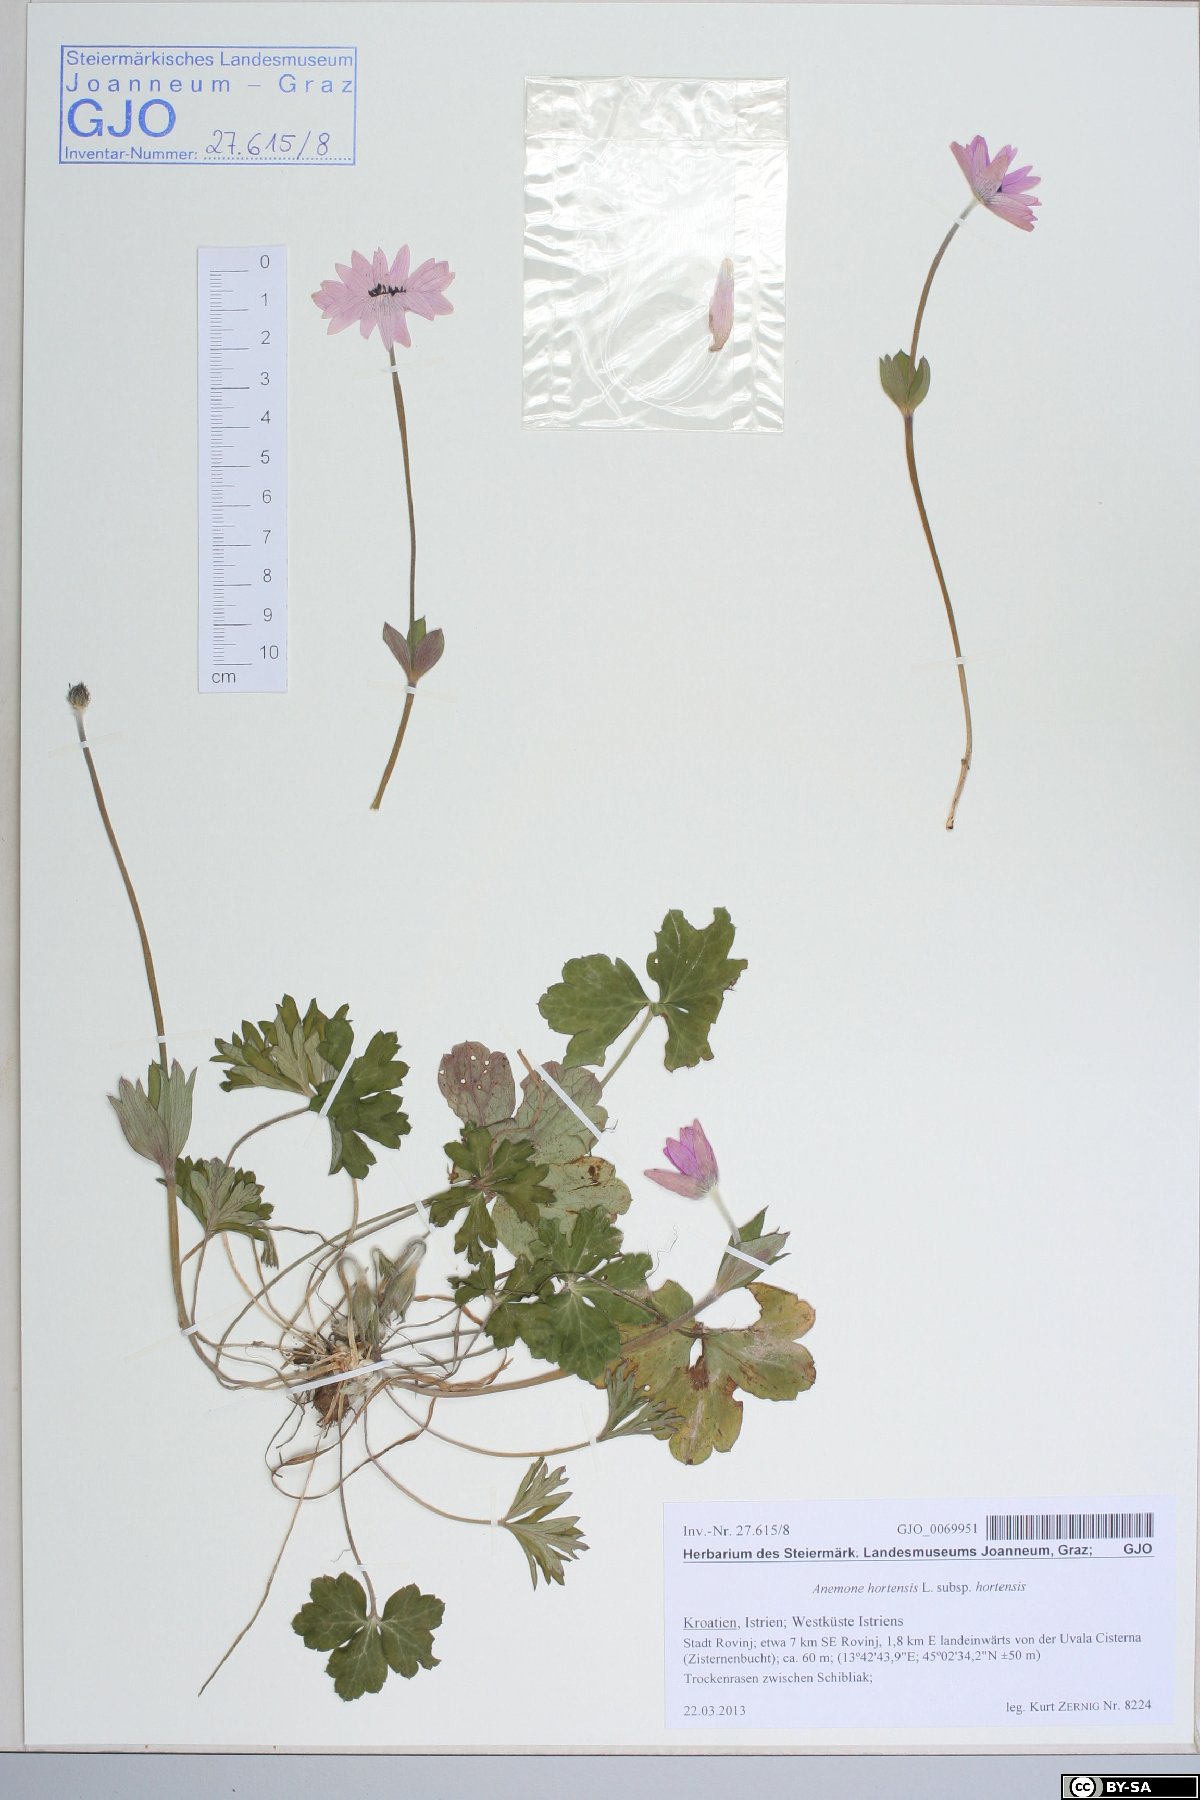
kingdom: Plantae
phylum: Tracheophyta
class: Magnoliopsida
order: Ranunculales
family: Ranunculaceae
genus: Anemone
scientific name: Anemone hortensis
